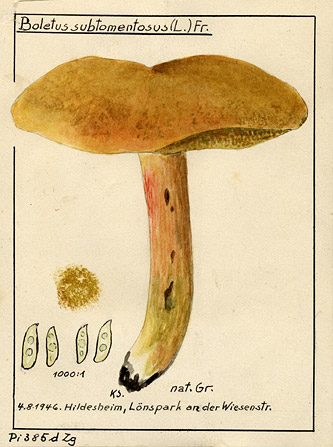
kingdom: Fungi
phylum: Basidiomycota
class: Agaricomycetes
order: Boletales
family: Boletaceae
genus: Xerocomus
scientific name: Xerocomus subtomentosus
